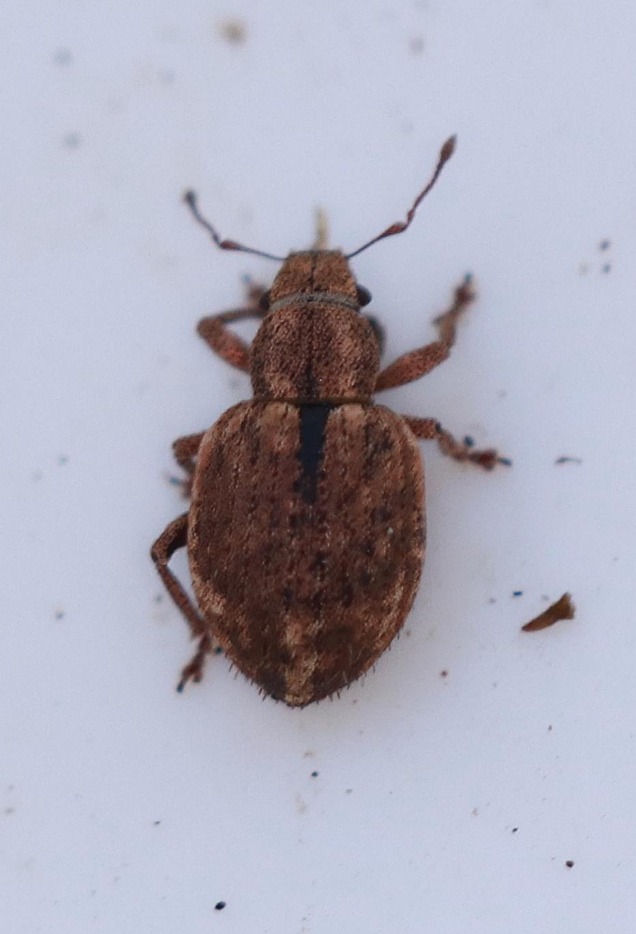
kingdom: Animalia
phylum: Arthropoda
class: Insecta
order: Coleoptera
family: Curculionidae
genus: Strophosoma
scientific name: Strophosoma melanogrammum
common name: Stribet gråsnude
